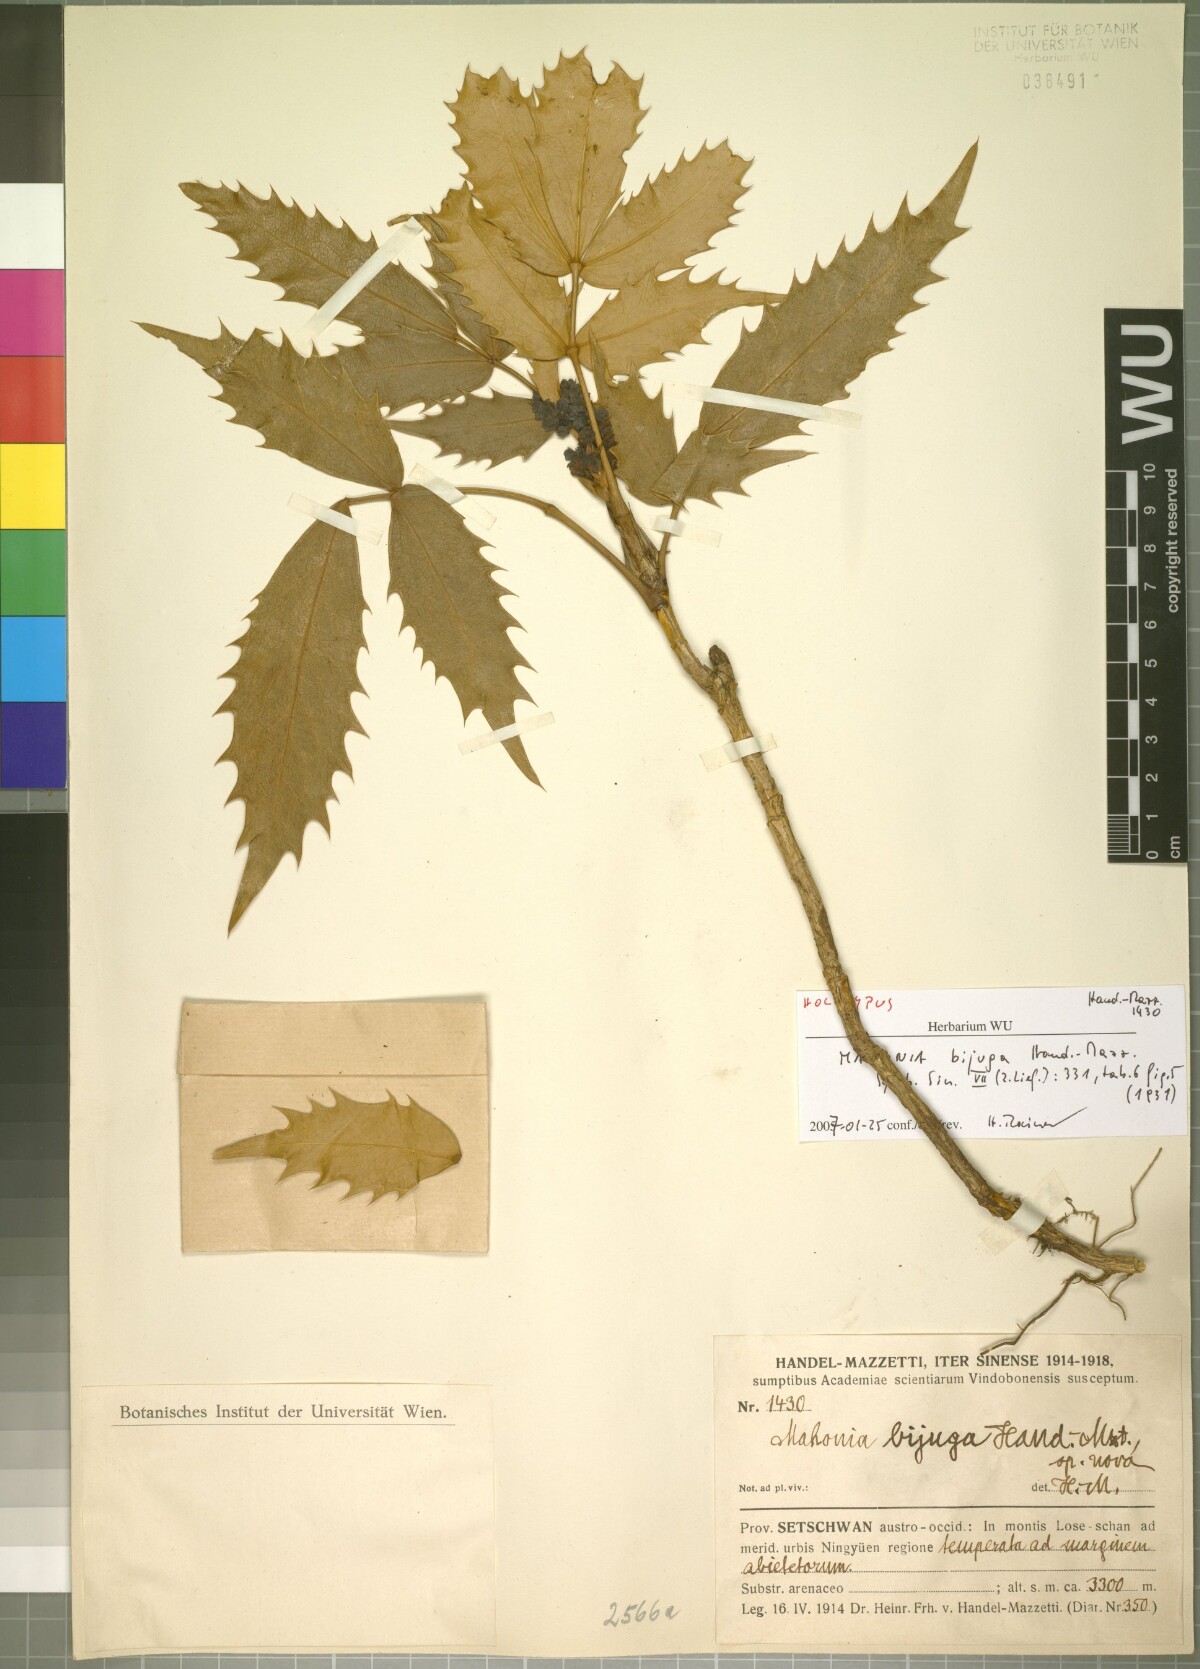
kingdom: Plantae
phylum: Tracheophyta
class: Magnoliopsida
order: Ranunculales
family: Berberidaceae
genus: Mahonia
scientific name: Mahonia bijuga
